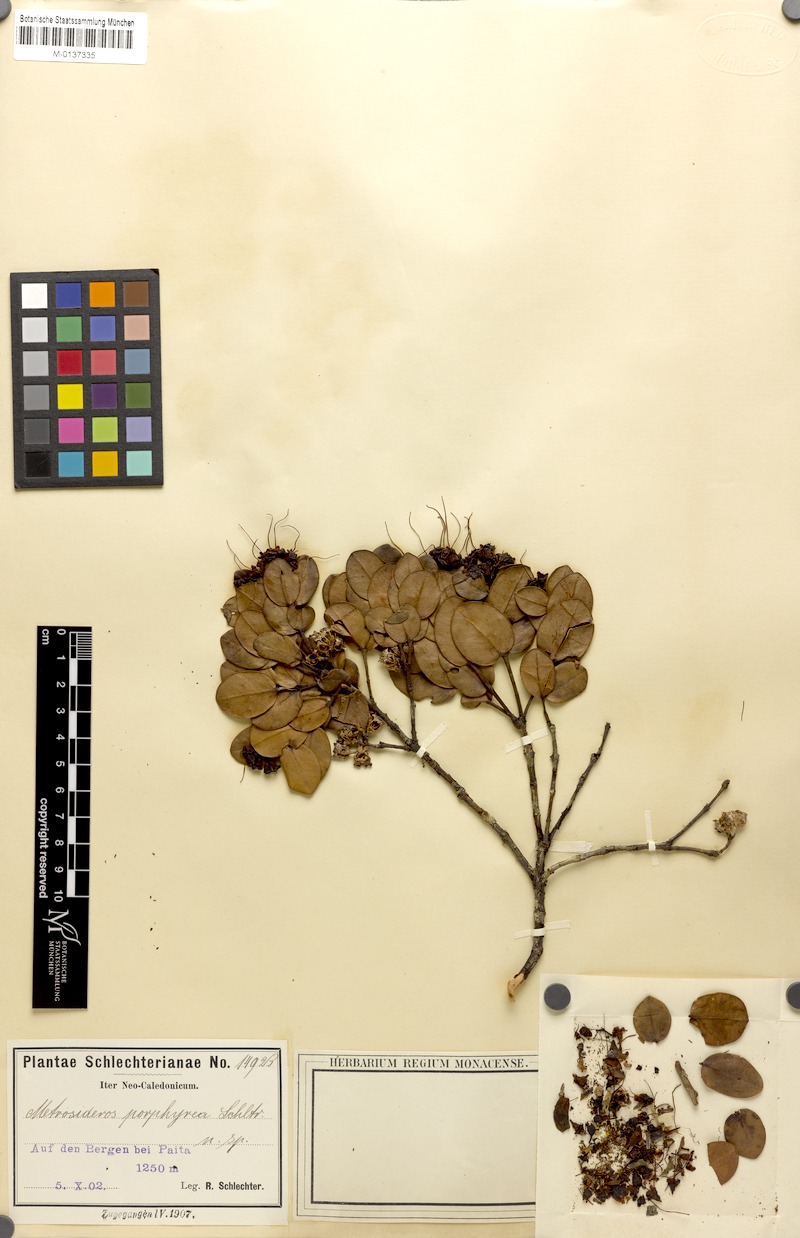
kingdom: Plantae
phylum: Tracheophyta
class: Magnoliopsida
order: Myrtales
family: Myrtaceae
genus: Metrosideros
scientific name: Metrosideros porphyrea
